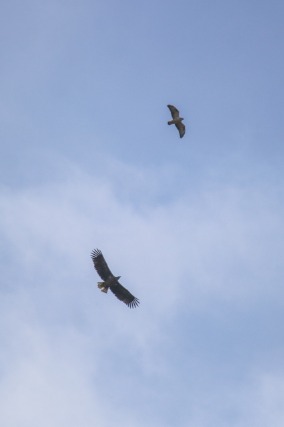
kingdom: Animalia
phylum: Chordata
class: Aves
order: Accipitriformes
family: Accipitridae
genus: Haliaeetus
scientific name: Haliaeetus albicilla
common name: Havørn
